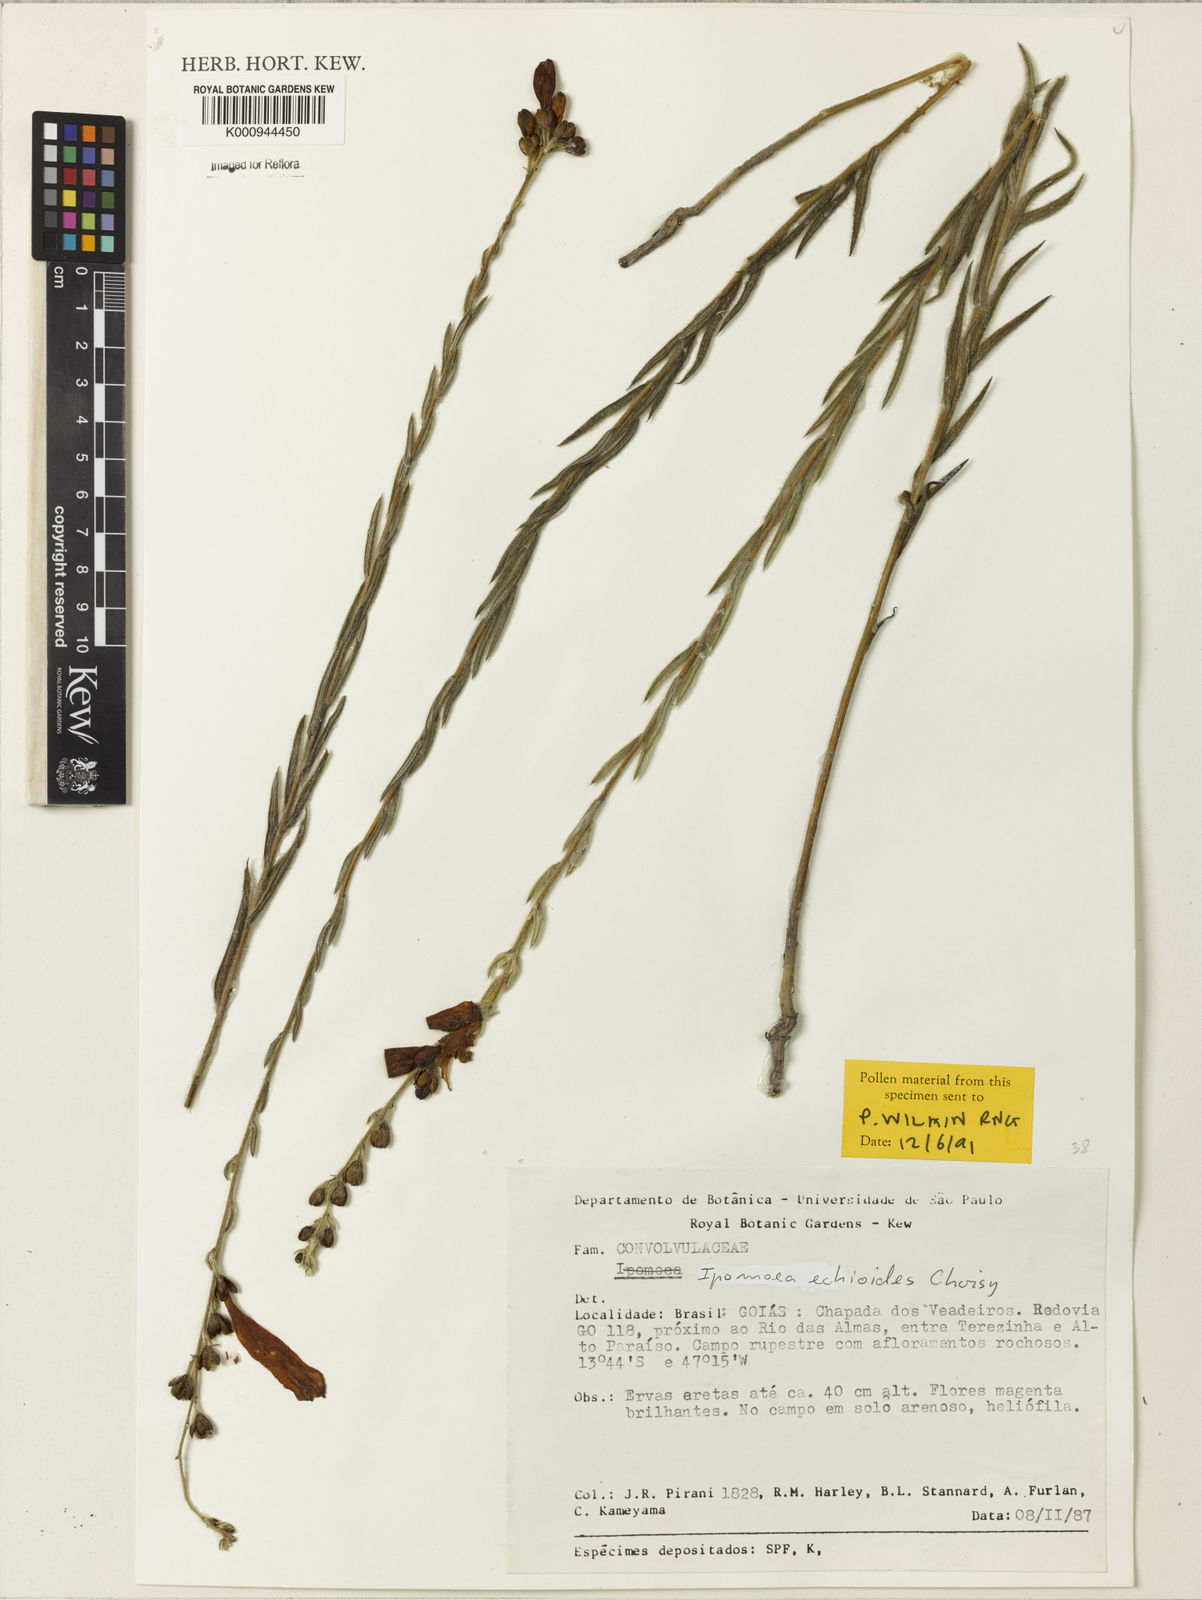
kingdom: Plantae
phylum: Tracheophyta
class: Magnoliopsida
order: Solanales
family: Convolvulaceae
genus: Ipomoea
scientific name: Ipomoea paulistana
